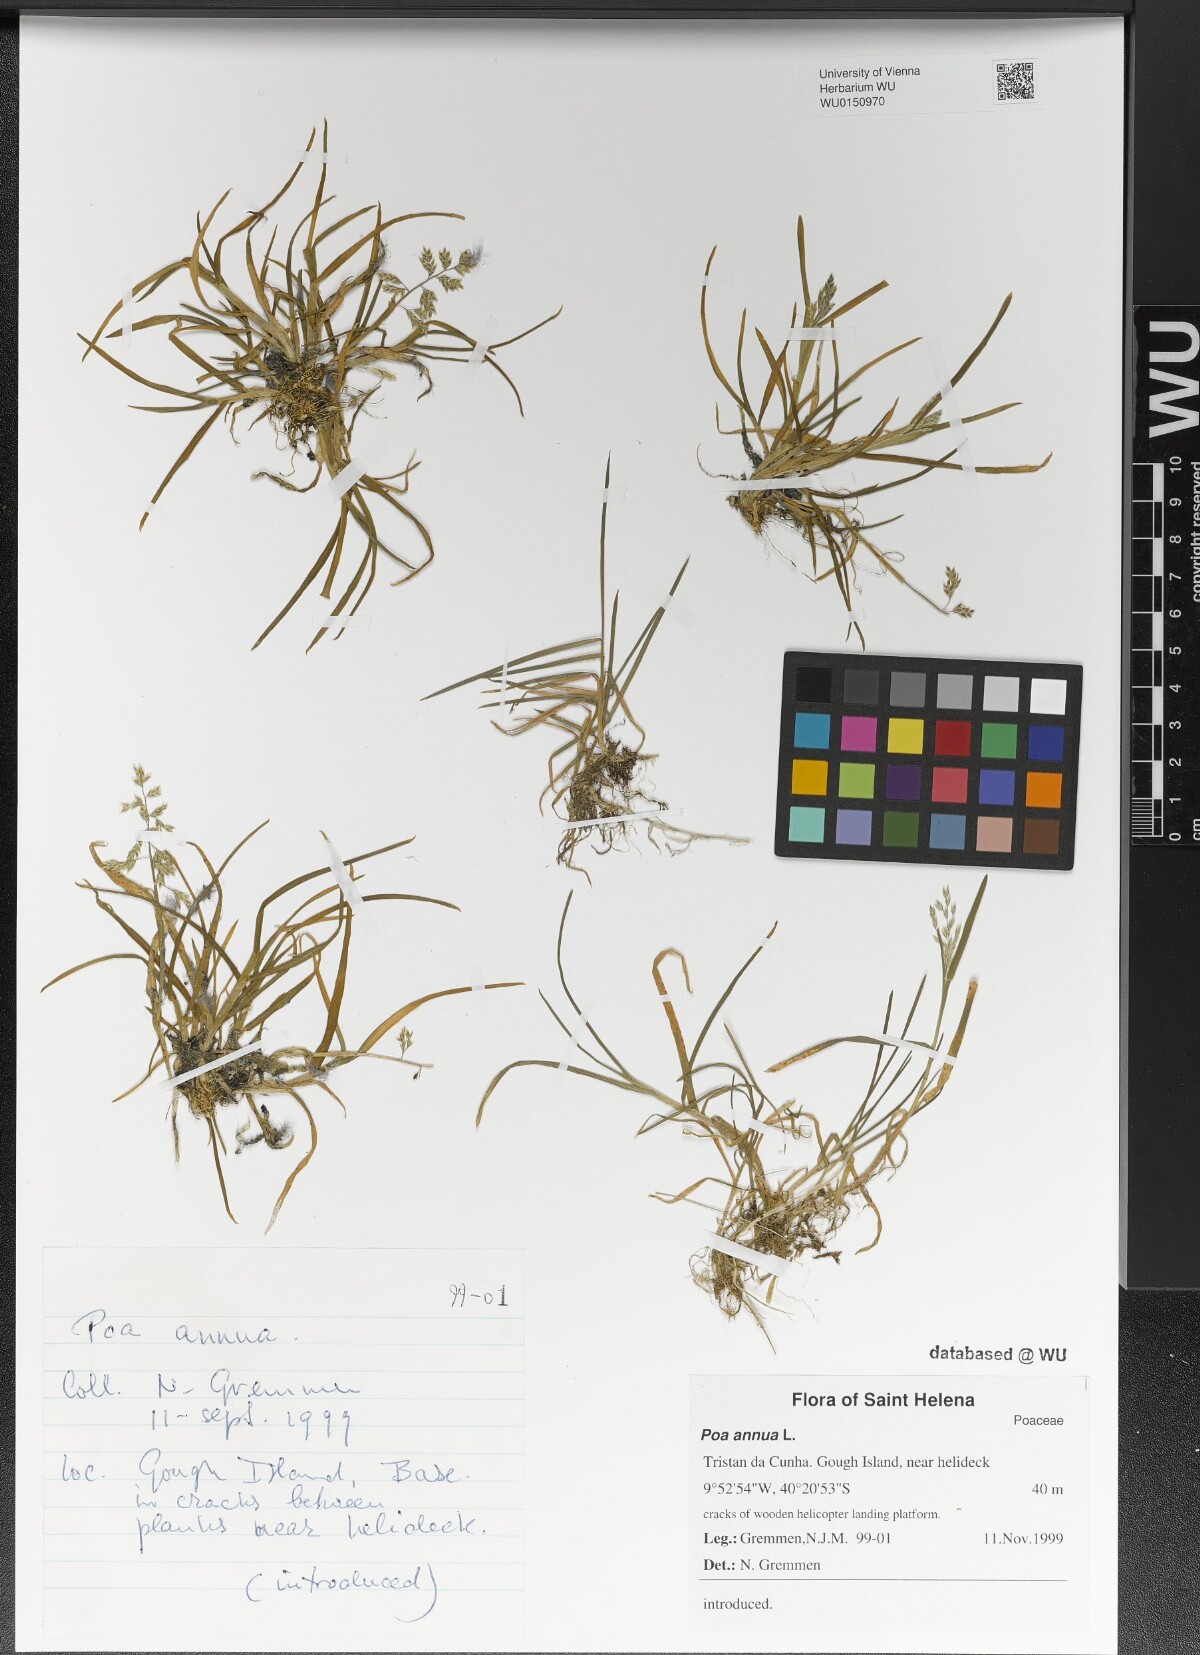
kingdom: Plantae
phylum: Tracheophyta
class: Liliopsida
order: Poales
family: Poaceae
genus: Poa
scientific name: Poa annua
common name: Annual bluegrass
